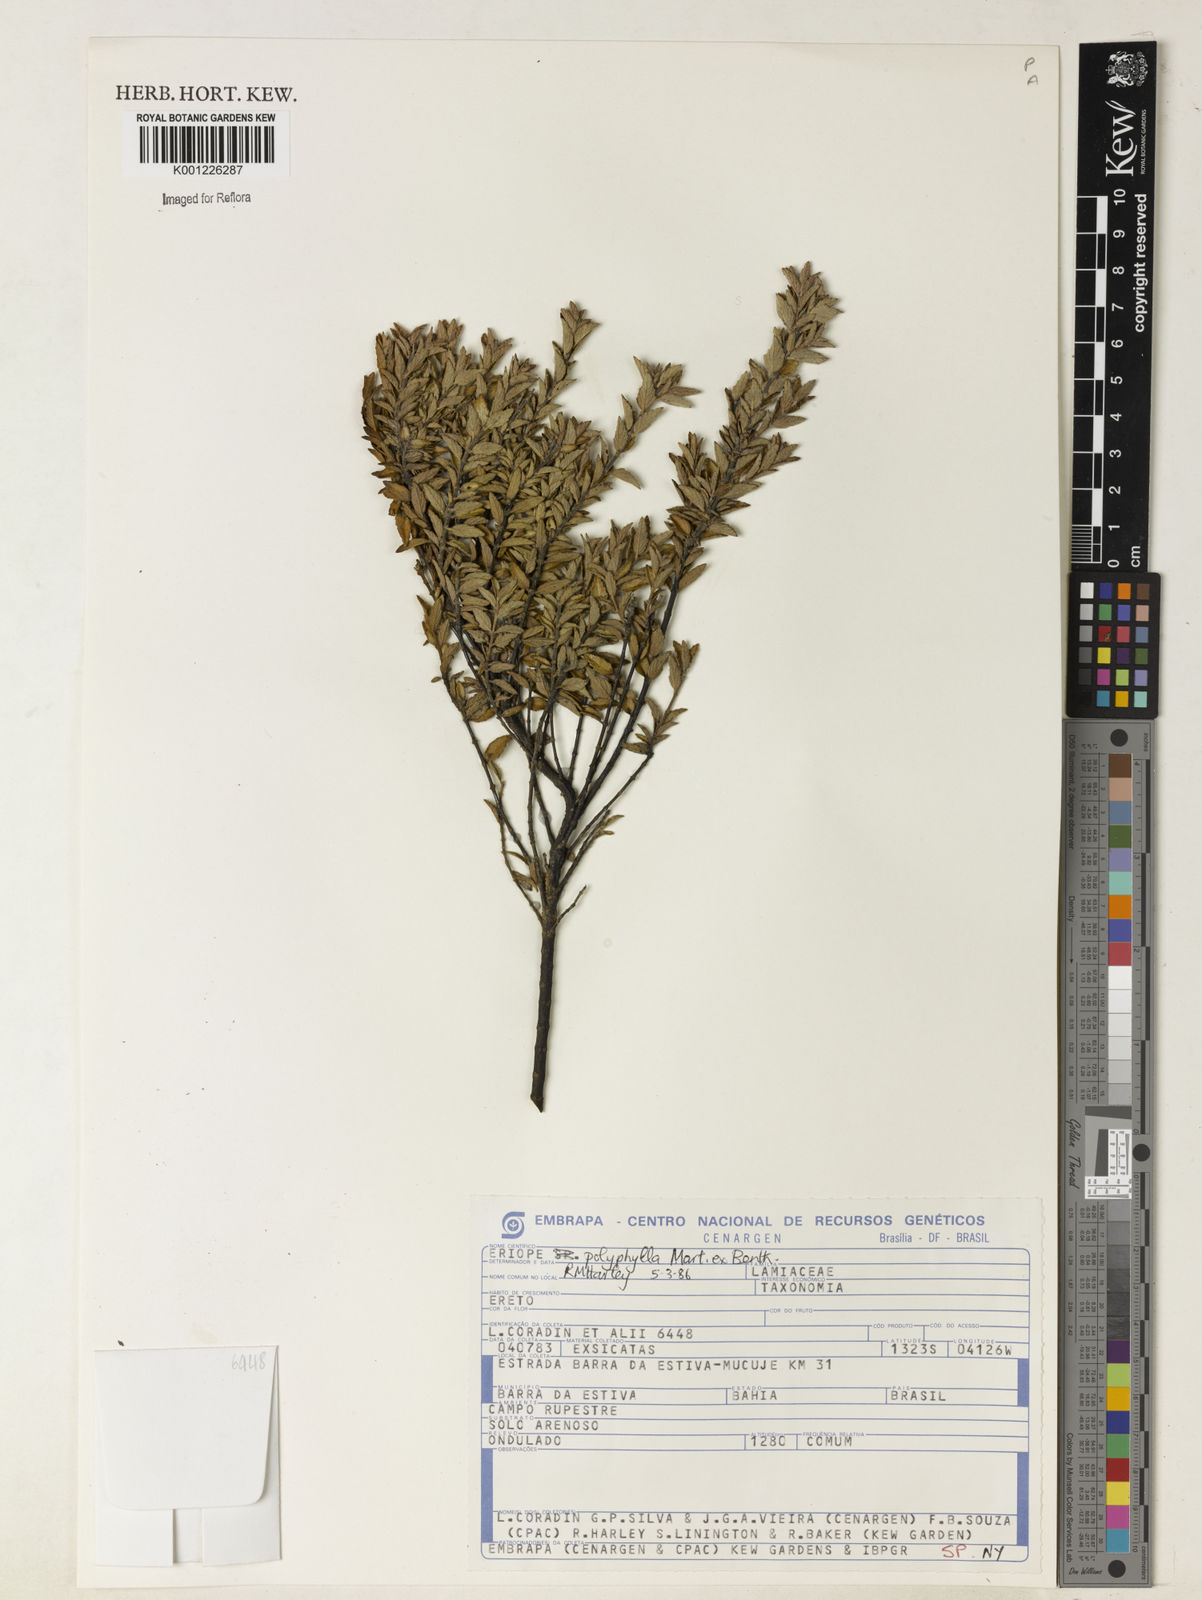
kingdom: Plantae
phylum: Tracheophyta
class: Magnoliopsida
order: Lamiales
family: Lamiaceae
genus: Eriope
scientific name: Eriope polyphylla
